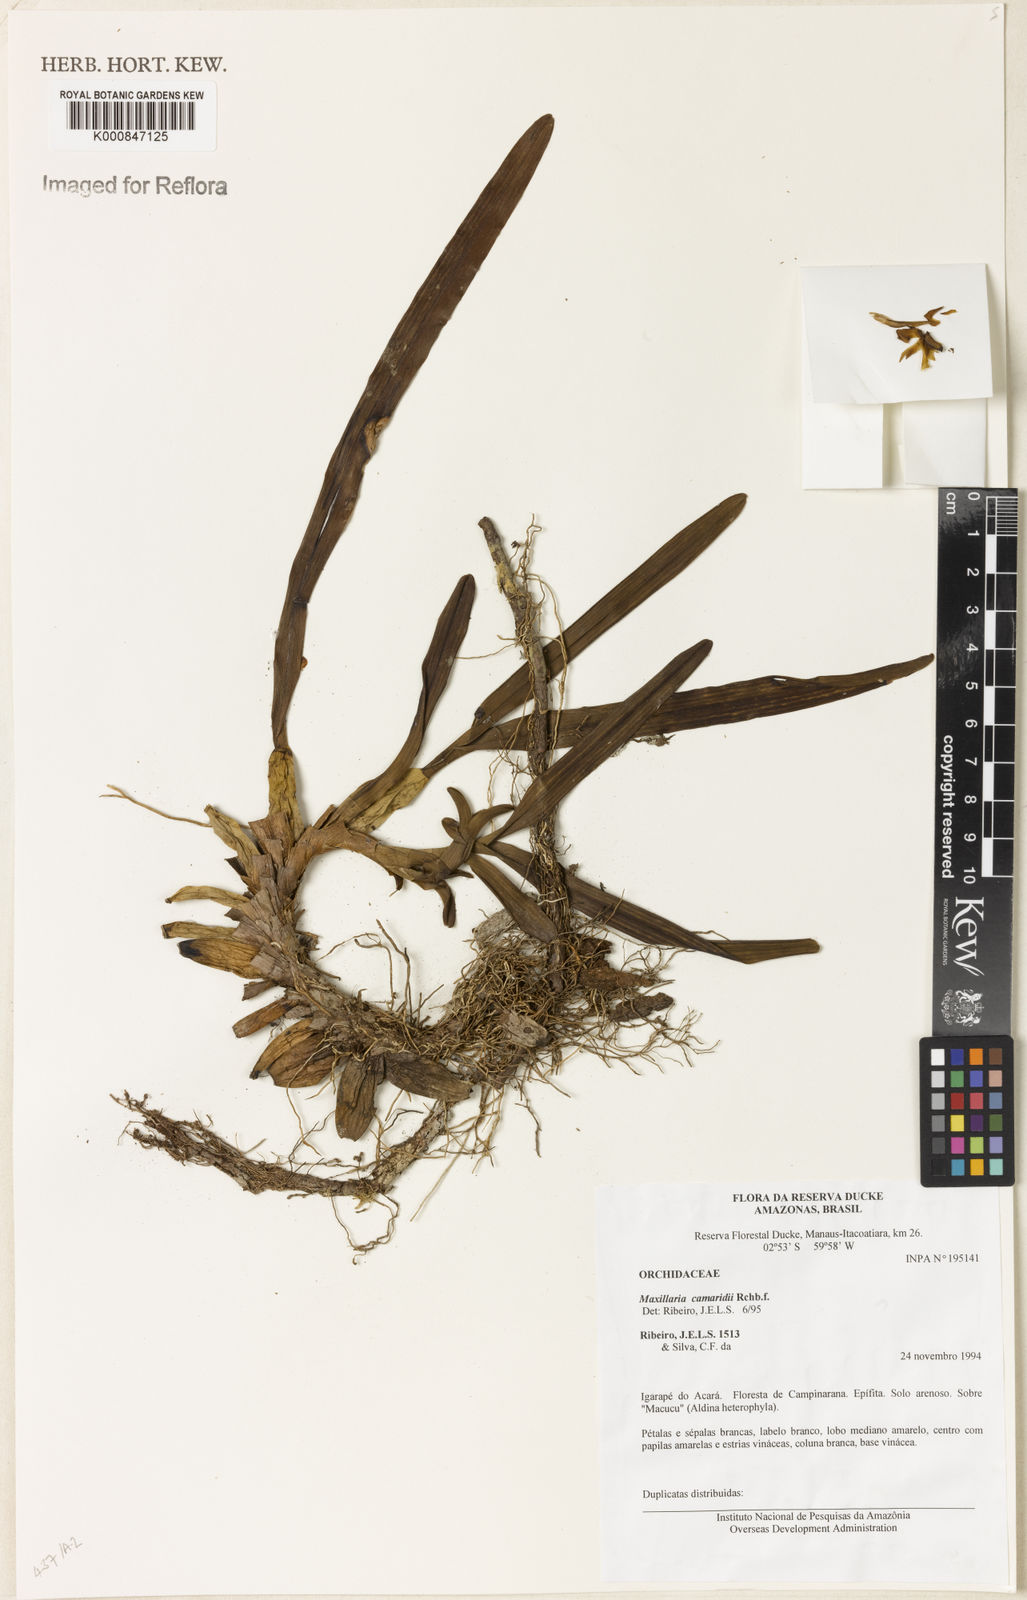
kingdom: Plantae
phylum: Tracheophyta
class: Liliopsida
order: Asparagales
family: Orchidaceae
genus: Maxillaria
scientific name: Maxillaria lutescens
